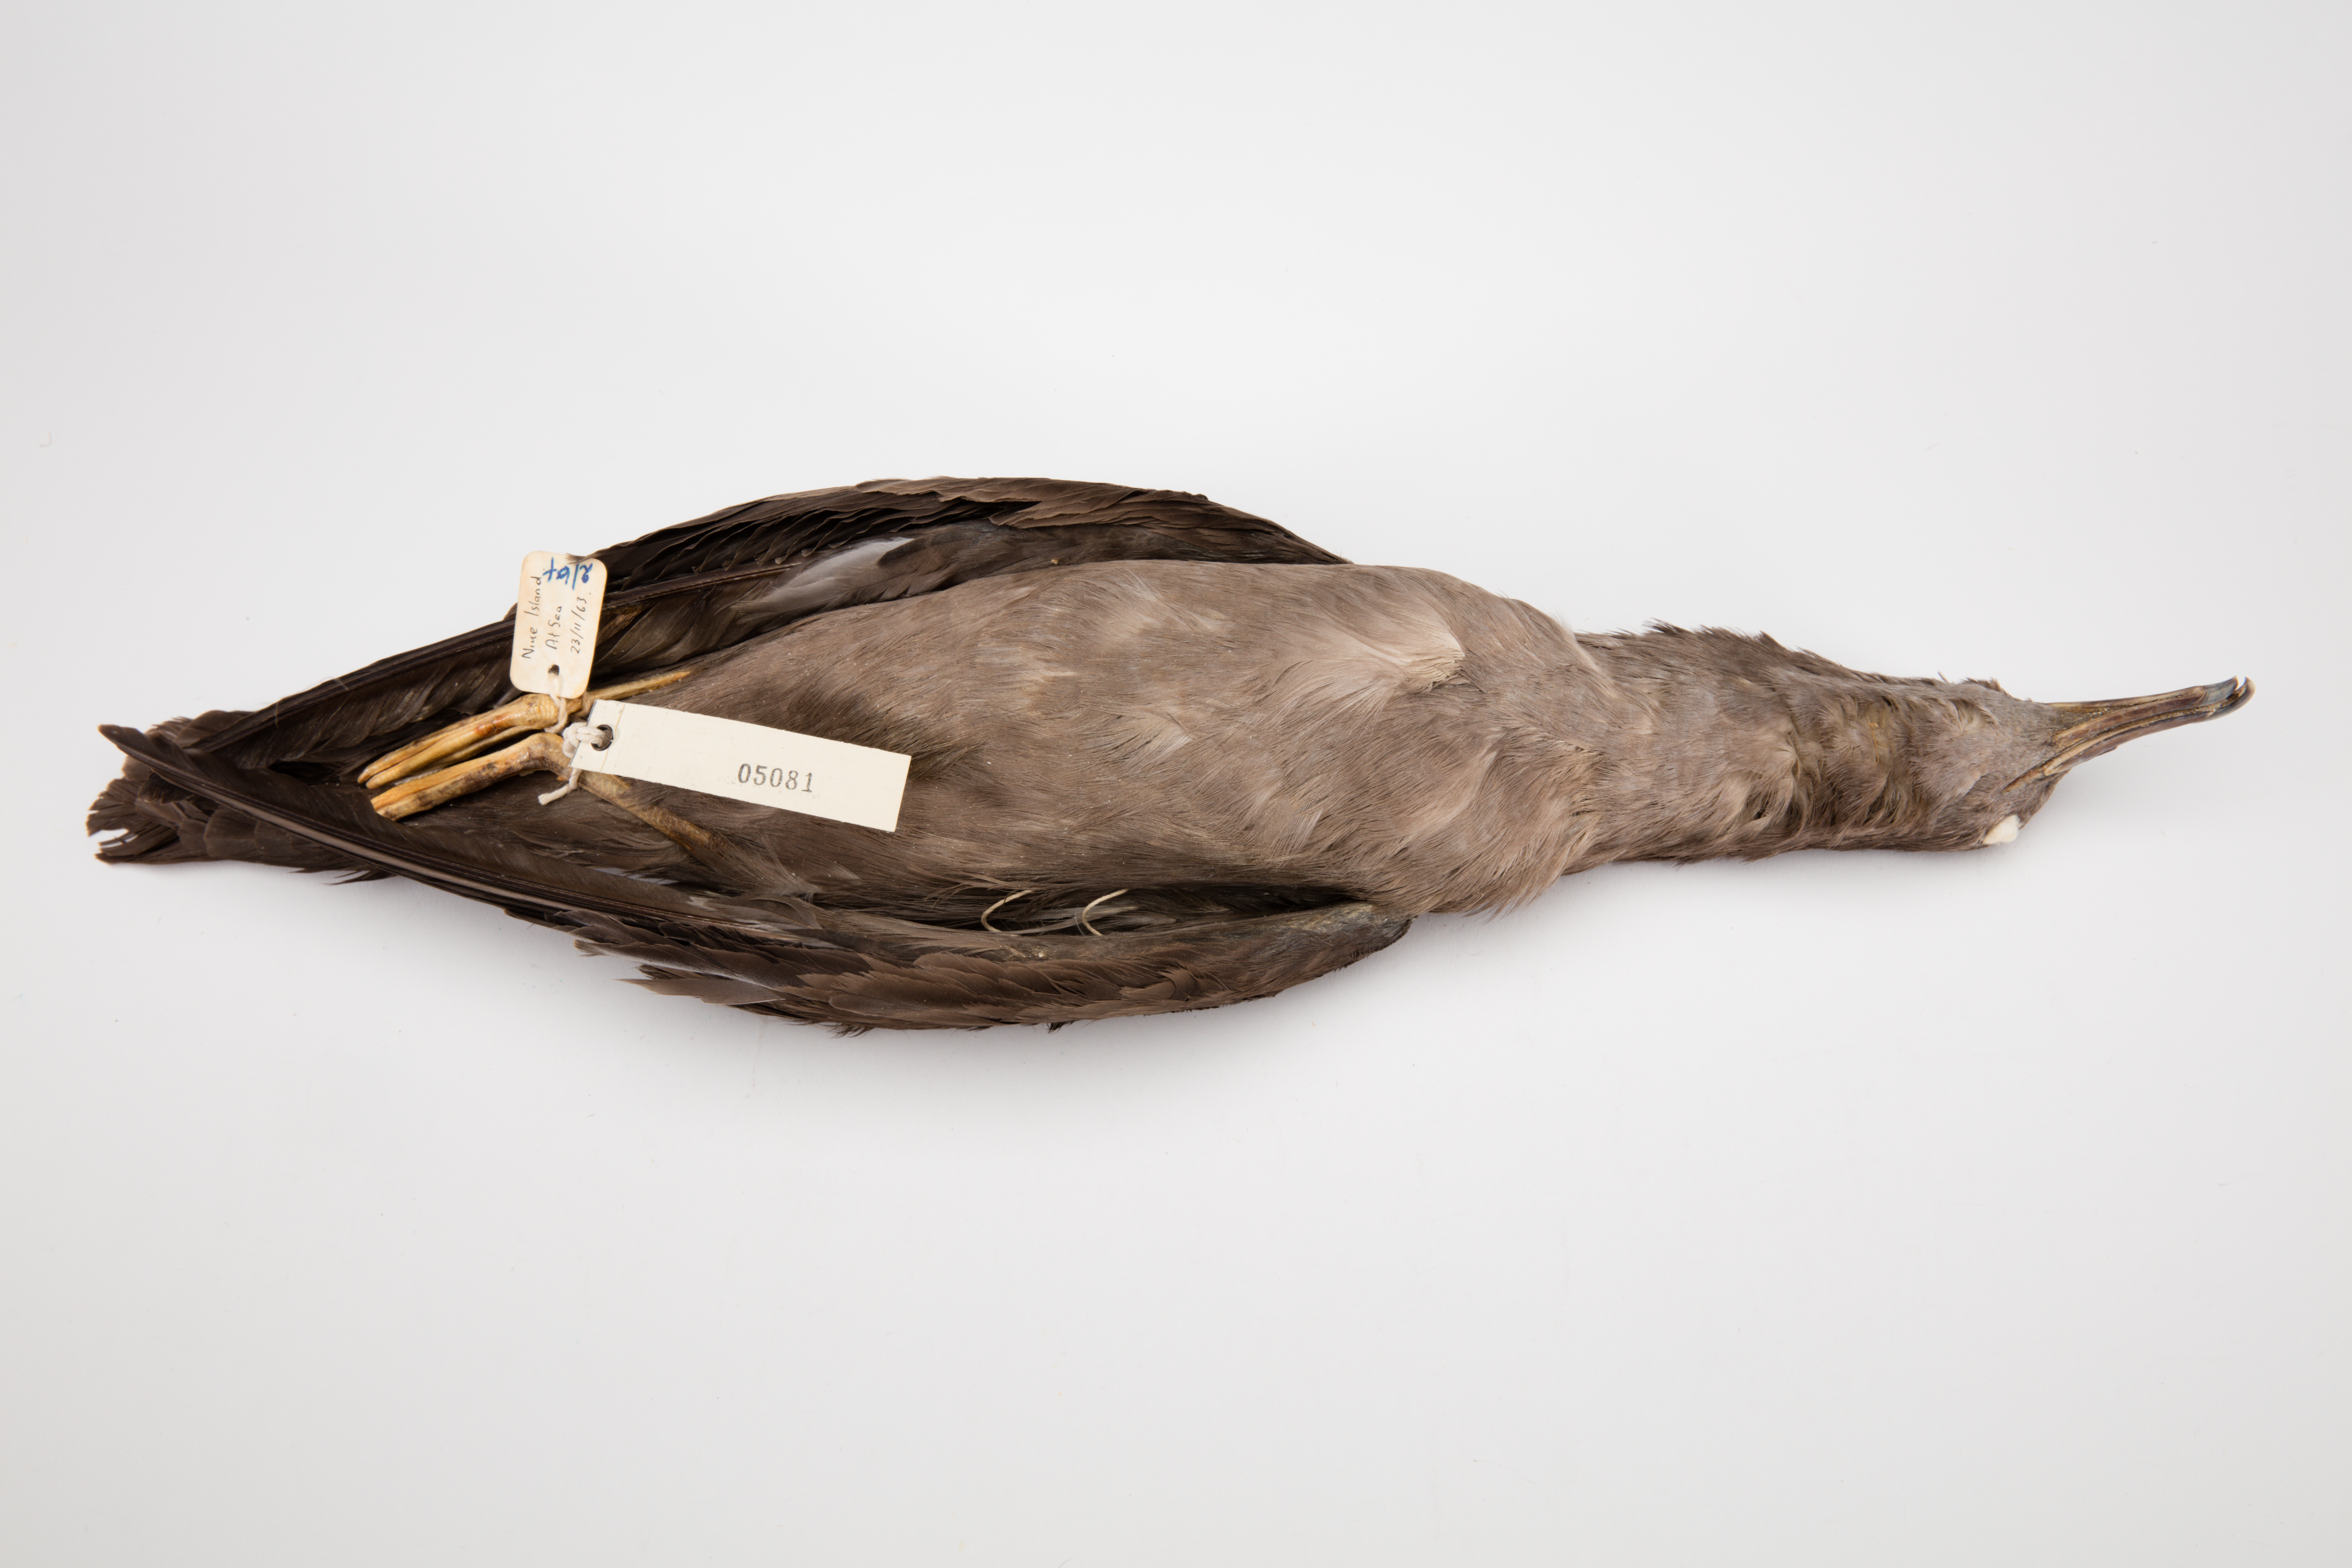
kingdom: Animalia
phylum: Chordata
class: Aves
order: Procellariiformes
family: Procellariidae
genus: Puffinus
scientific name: Puffinus pacificus
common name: Wedge-tailed shearwater
